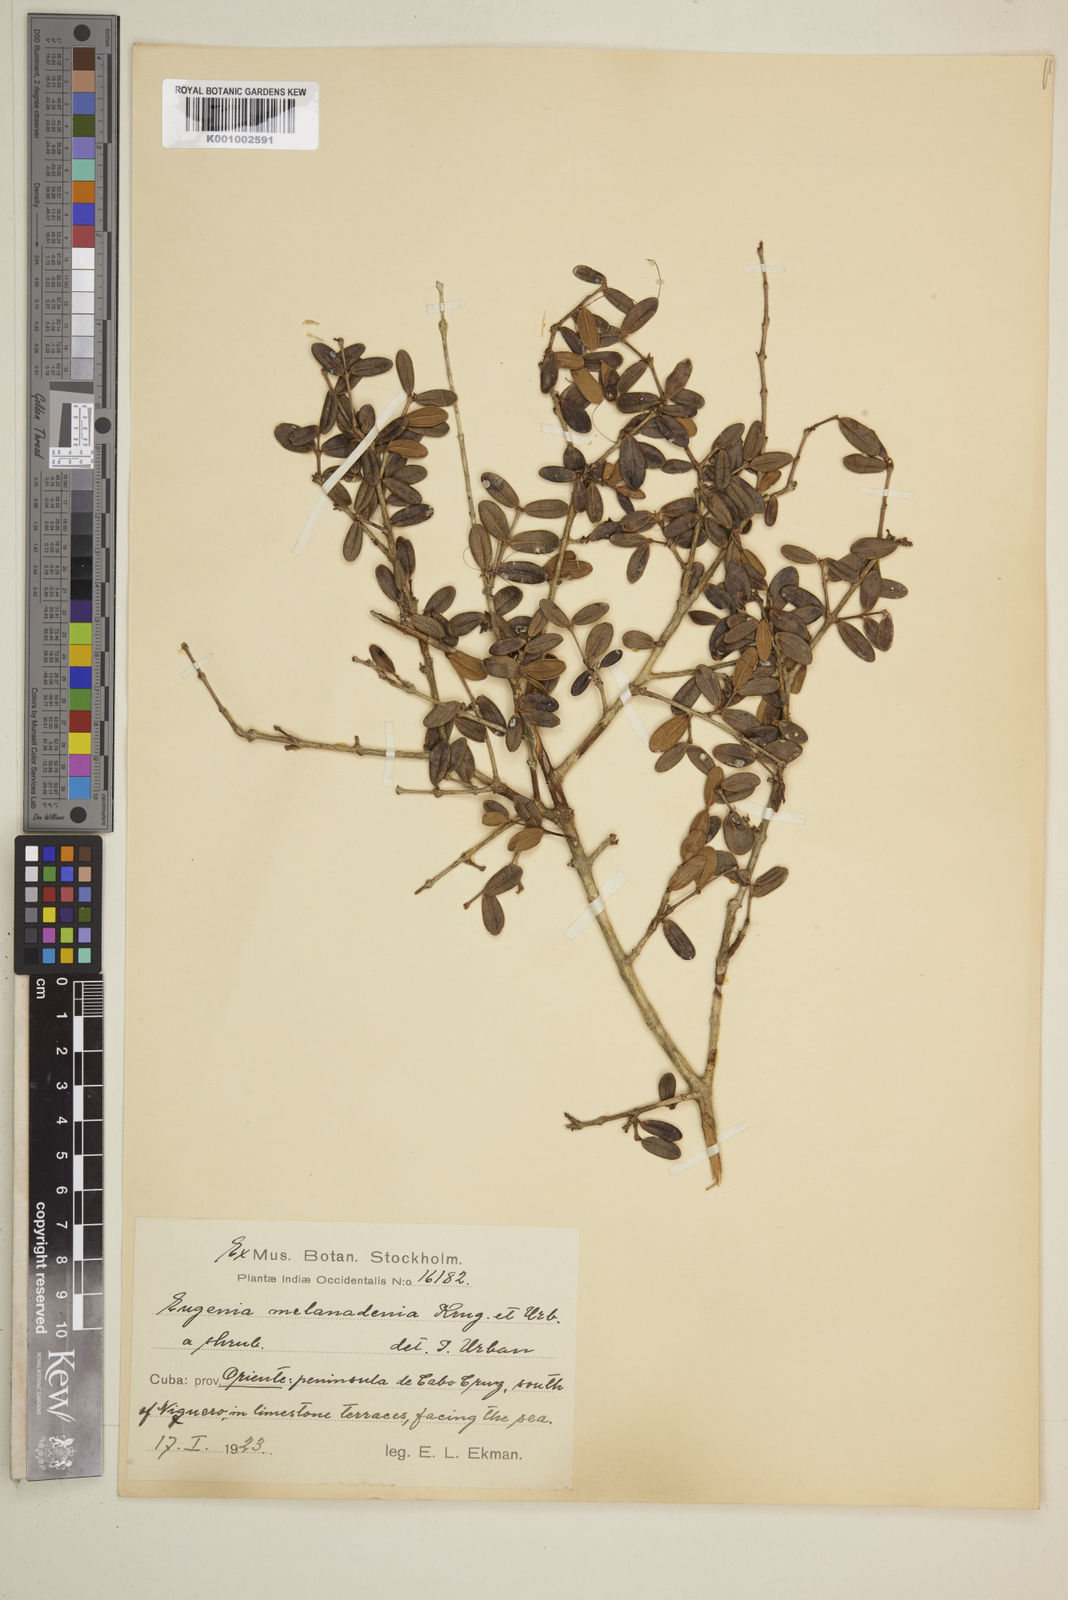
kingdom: Plantae
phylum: Tracheophyta
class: Magnoliopsida
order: Myrtales
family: Myrtaceae
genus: Eugenia
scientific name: Eugenia melanadenia
